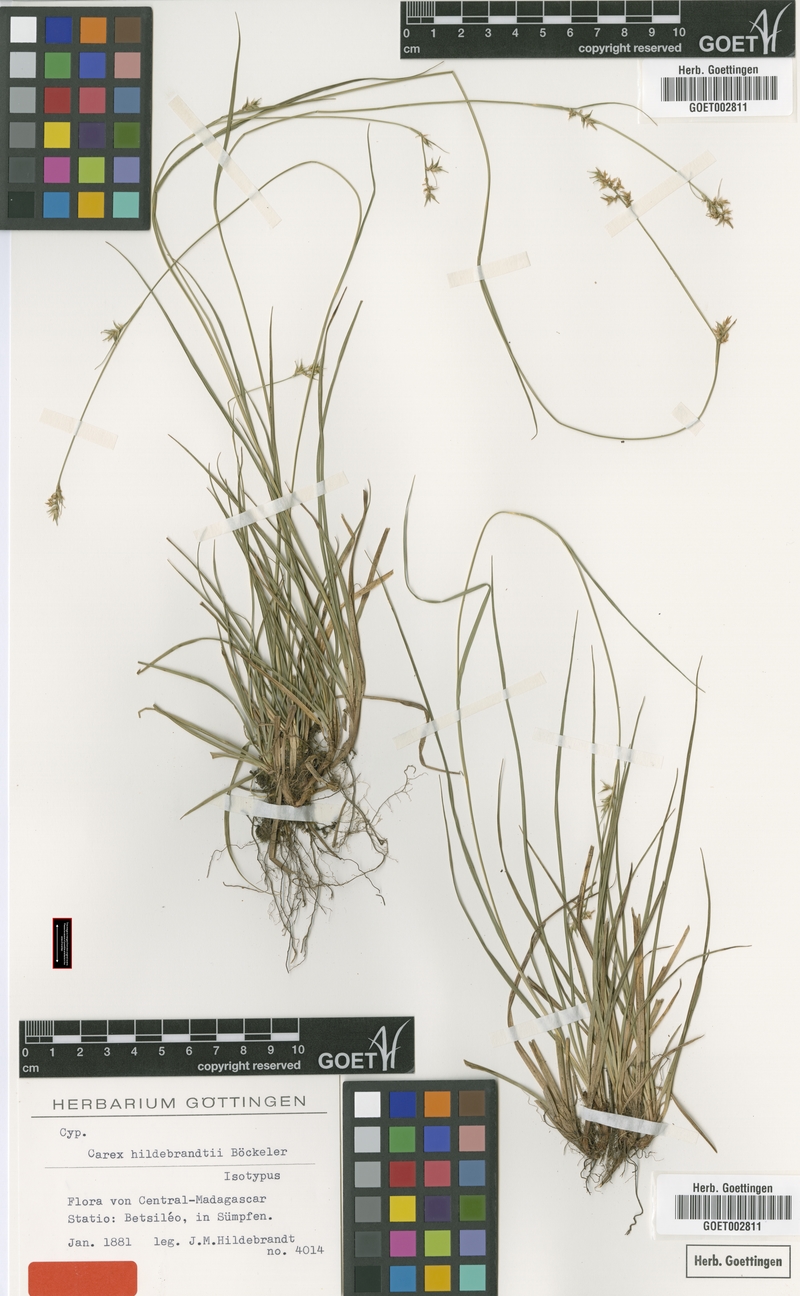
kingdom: Plantae
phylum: Tracheophyta
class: Liliopsida
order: Poales
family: Cyperaceae
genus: Carex
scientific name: Carex hildebrandtiana
